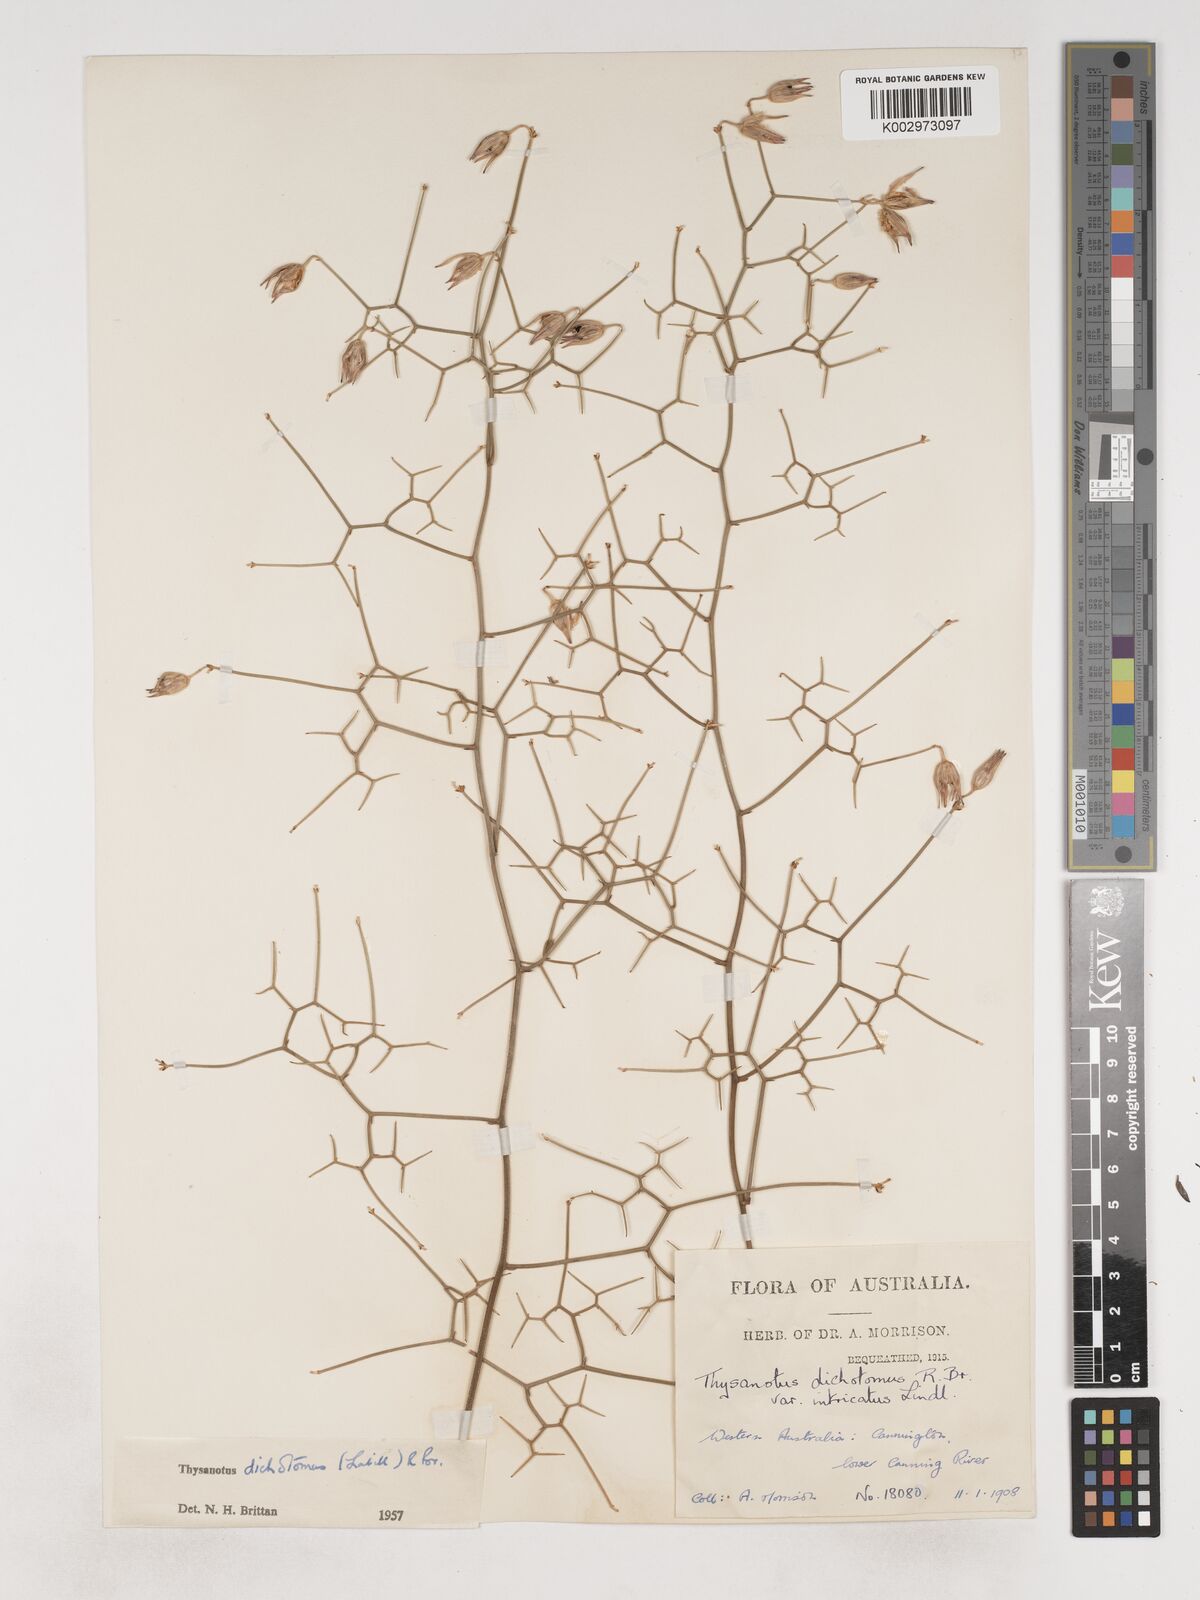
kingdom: Plantae
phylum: Tracheophyta
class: Liliopsida
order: Asparagales
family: Asparagaceae
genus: Thysanotus
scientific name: Thysanotus dichotomus
